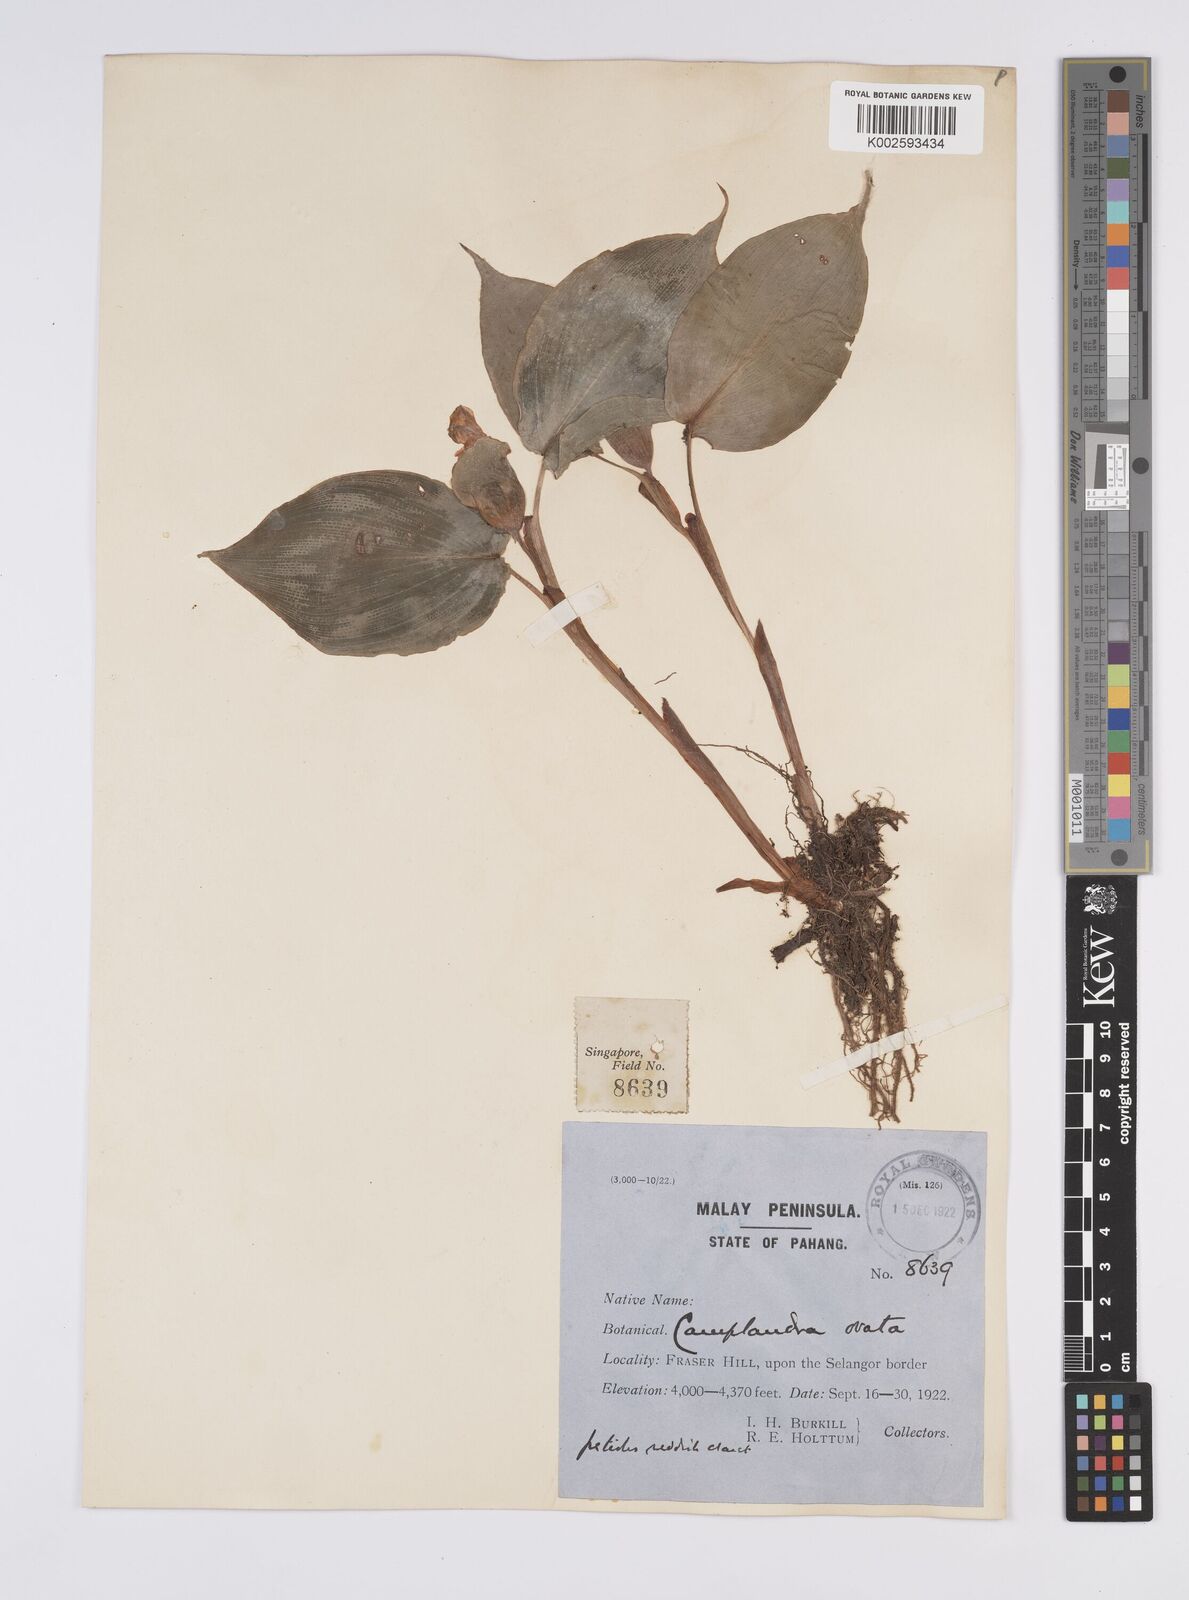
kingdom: Plantae
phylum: Tracheophyta
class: Liliopsida
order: Zingiberales
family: Zingiberaceae
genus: Camptandra
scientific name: Camptandra ovata
